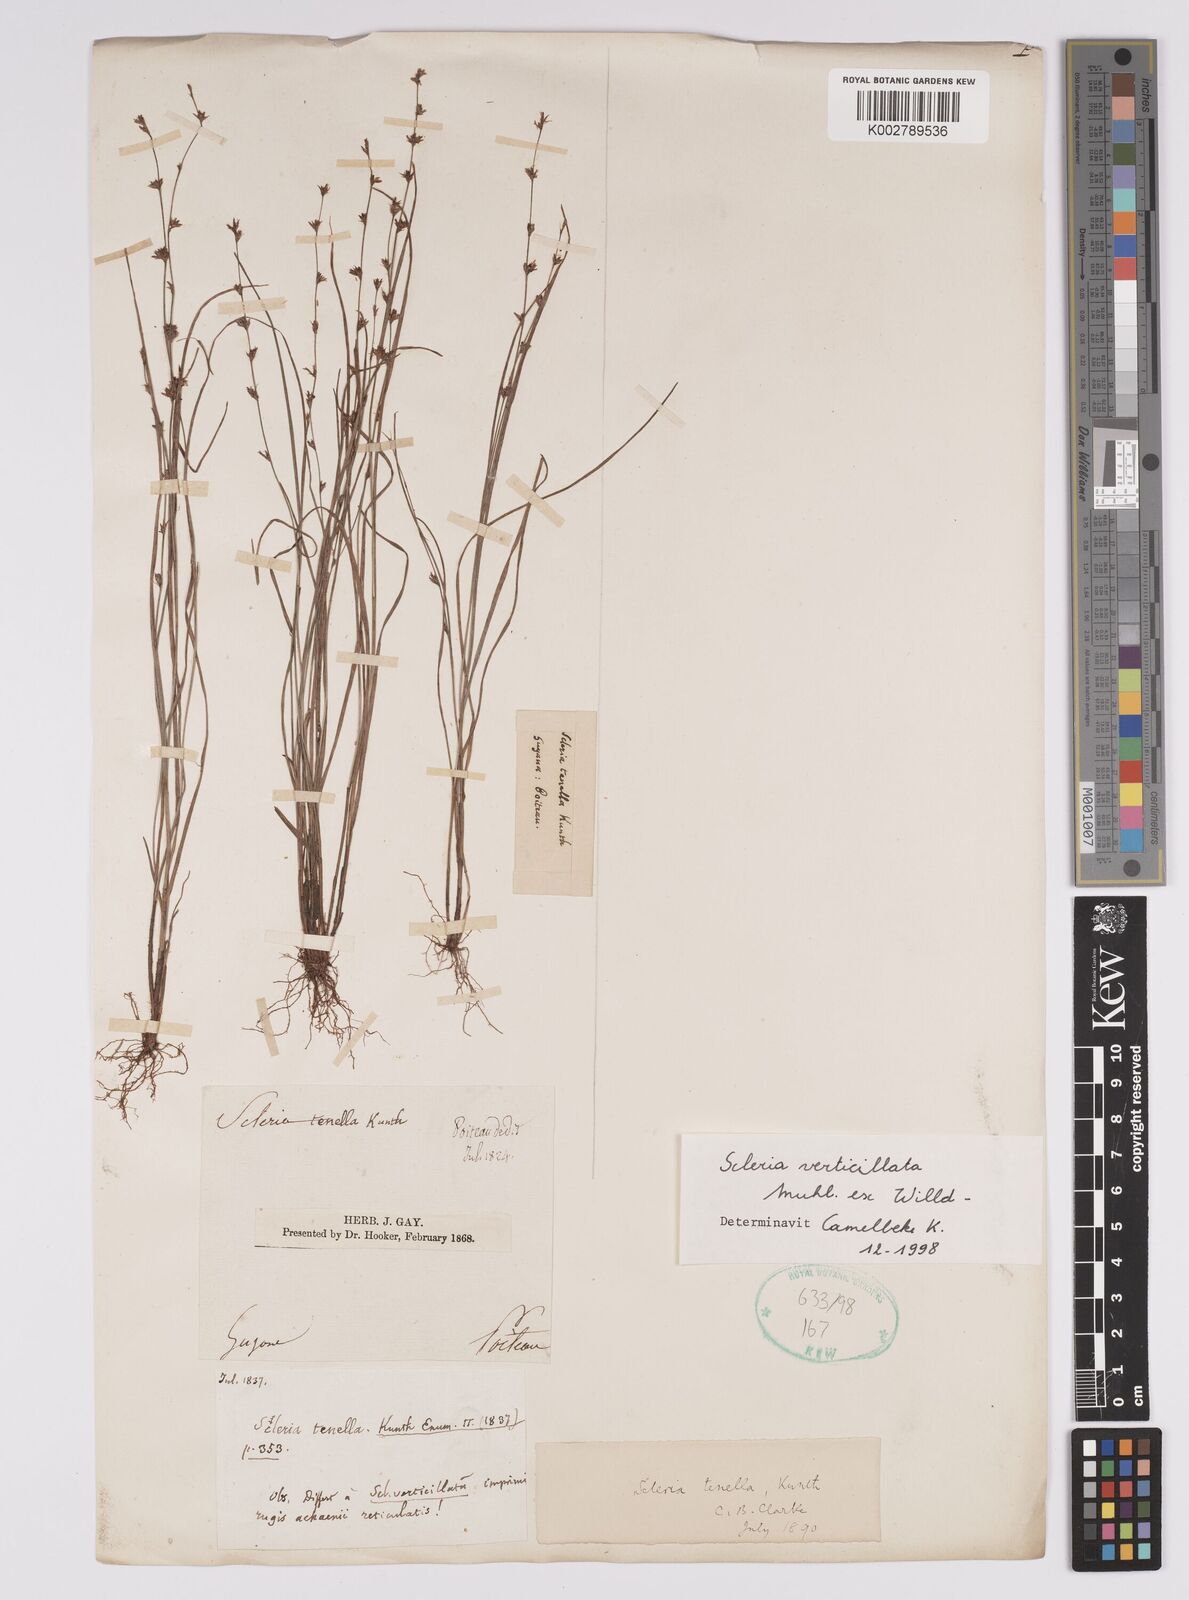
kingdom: Plantae
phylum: Tracheophyta
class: Liliopsida
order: Poales
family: Cyperaceae
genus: Scleria
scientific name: Scleria verticillata
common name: Low nutrush
